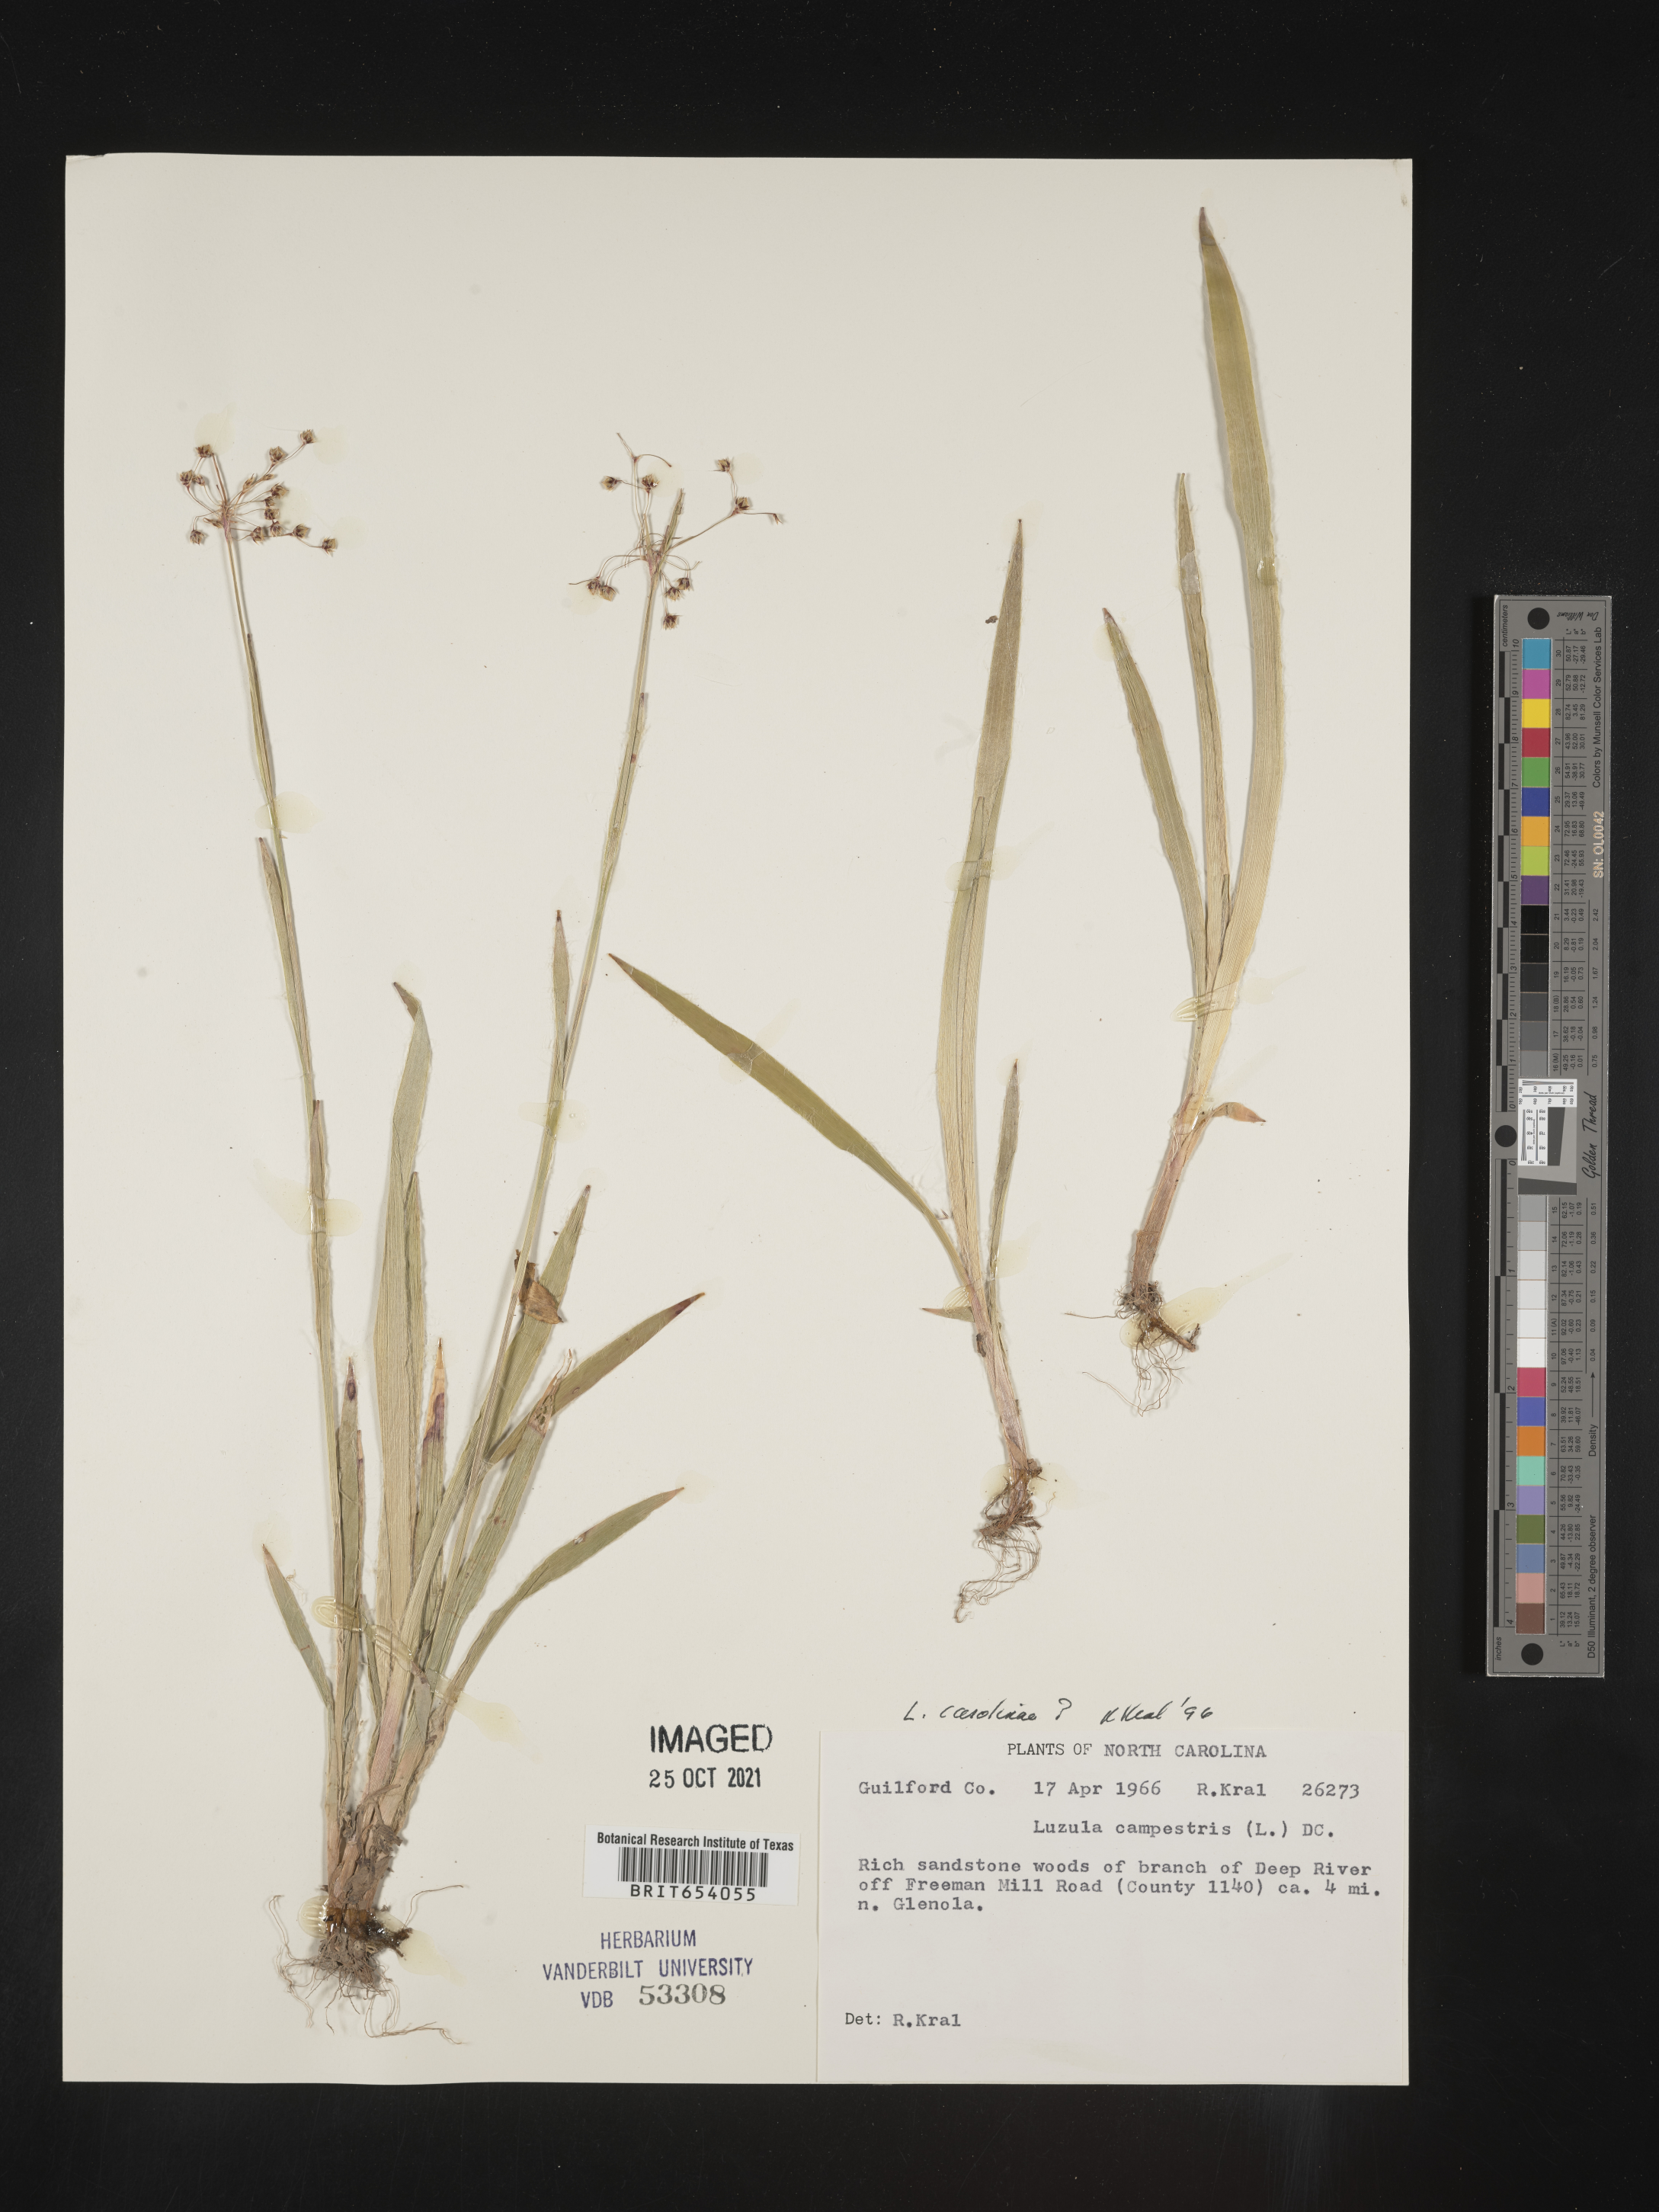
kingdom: Plantae
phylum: Tracheophyta
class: Liliopsida
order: Poales
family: Juncaceae
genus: Luzula
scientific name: Luzula acuminata
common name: Hairy woodrush
